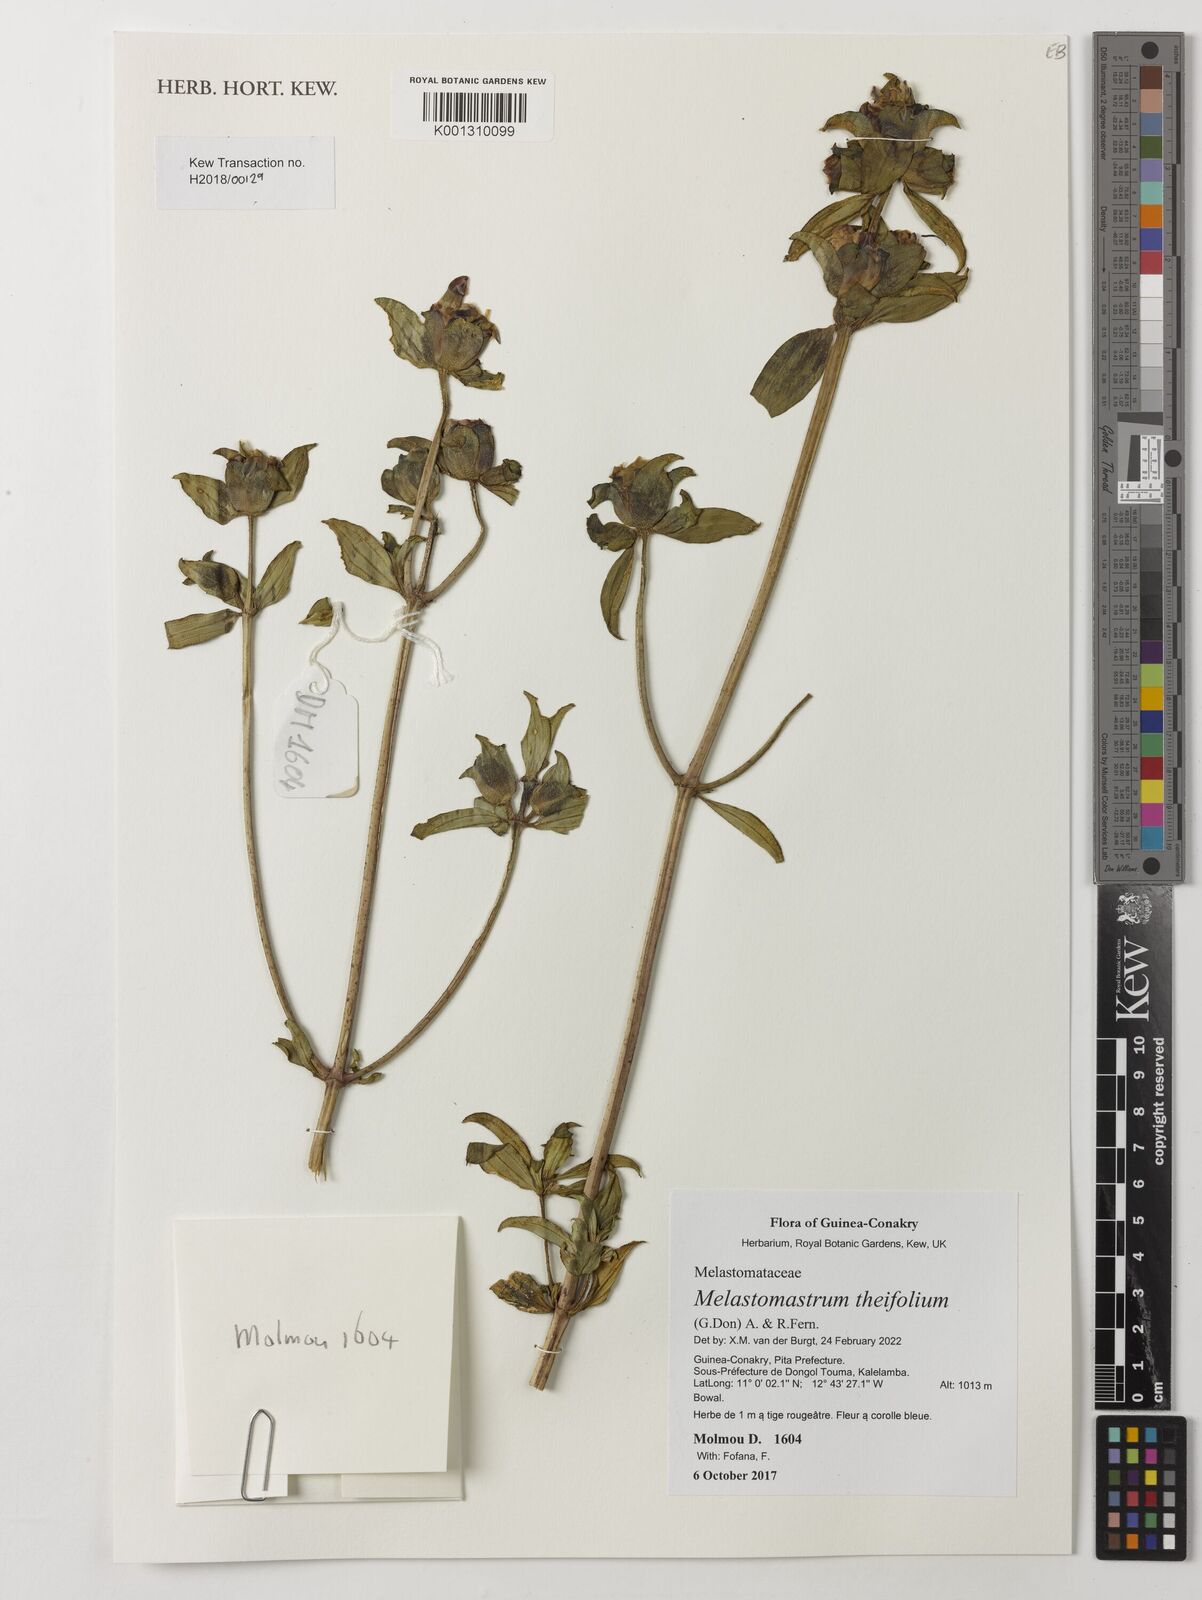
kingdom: Plantae
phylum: Tracheophyta
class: Magnoliopsida
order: Myrtales
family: Melastomataceae
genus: Melastomastrum
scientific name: Melastomastrum theifolium
